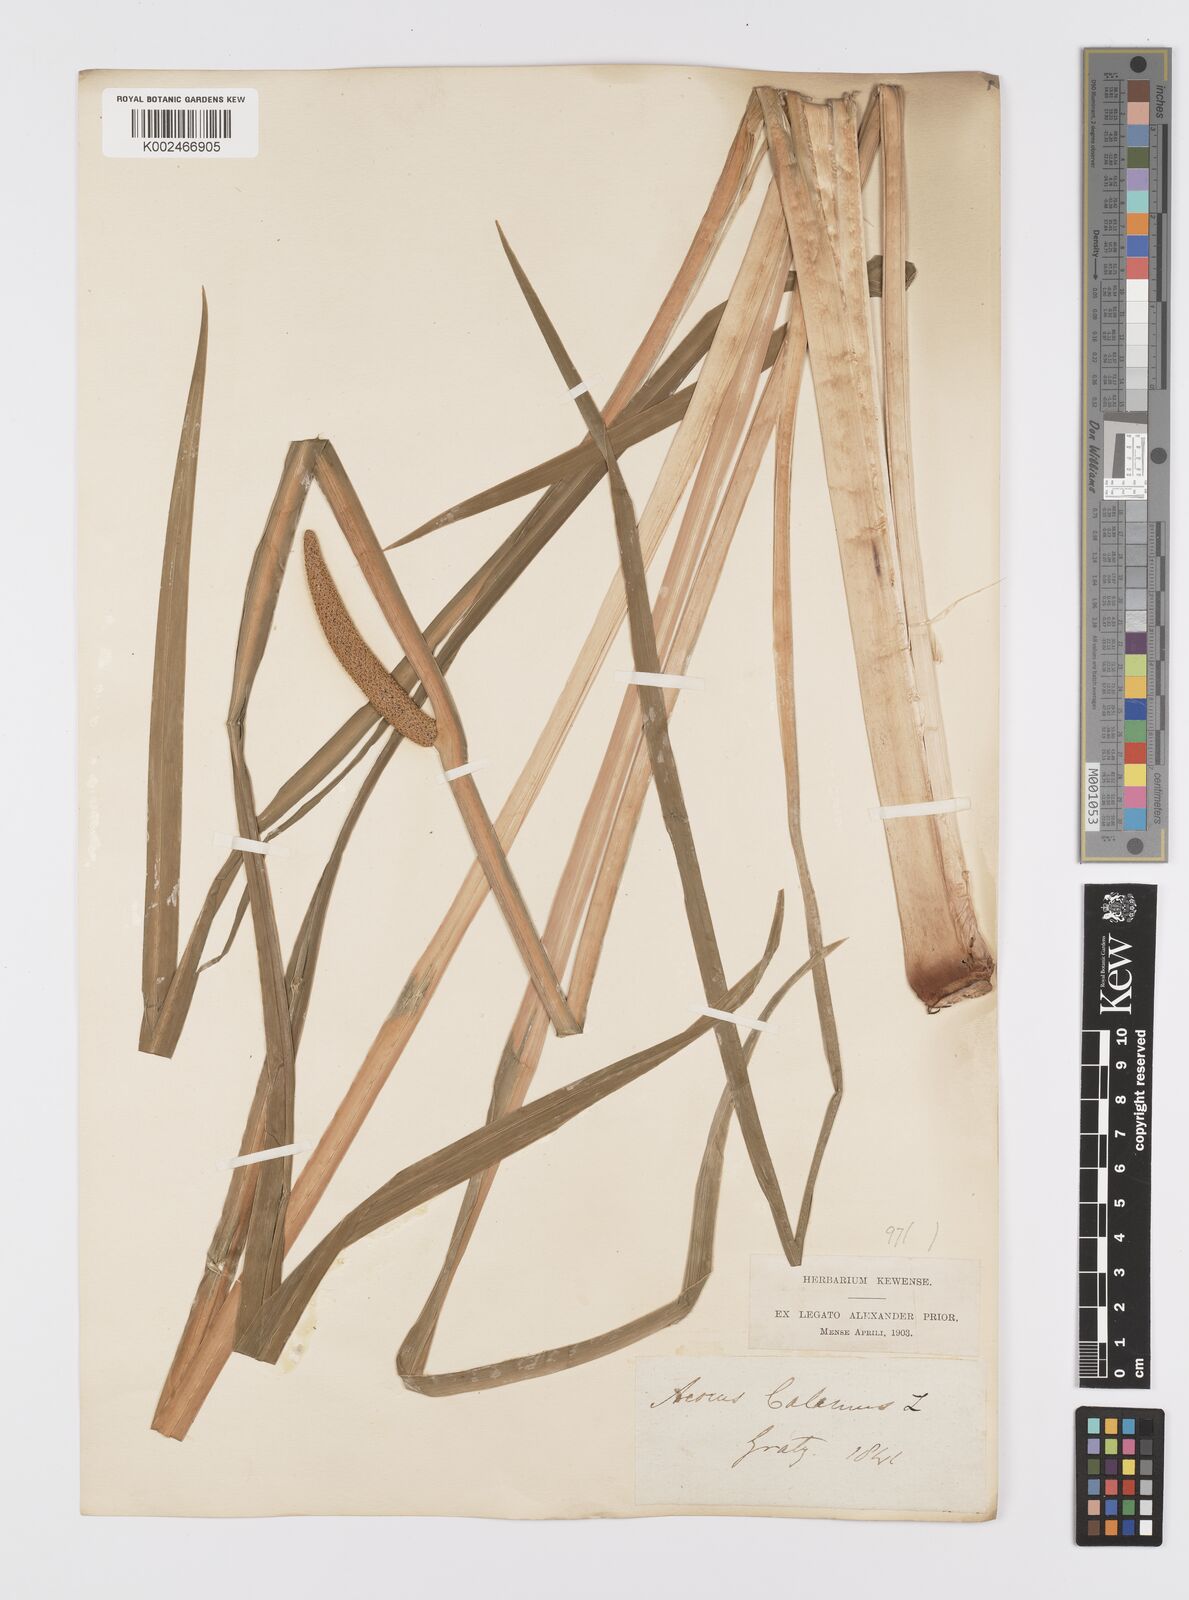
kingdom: Plantae
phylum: Tracheophyta
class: Liliopsida
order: Acorales
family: Acoraceae
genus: Acorus
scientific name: Acorus calamus
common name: Sweet-flag
